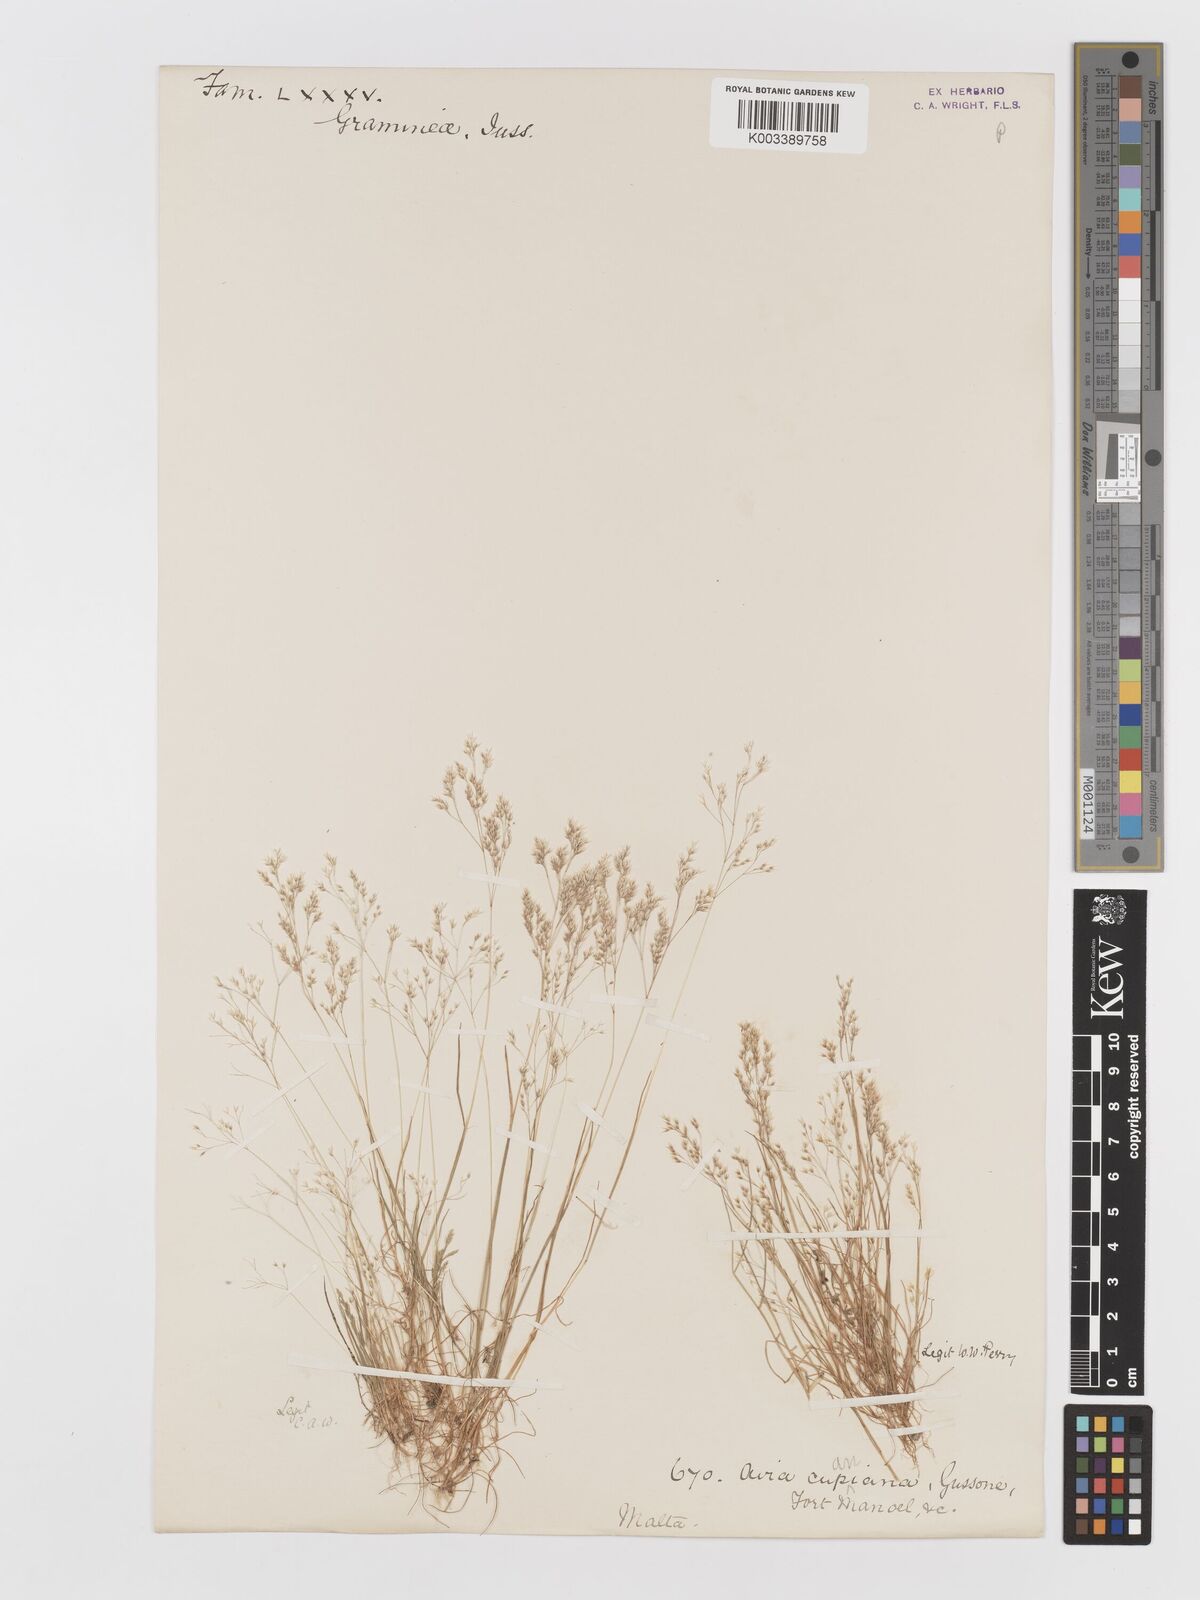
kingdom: Plantae
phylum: Tracheophyta
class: Liliopsida
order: Poales
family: Poaceae
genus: Aira
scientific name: Aira cupaniana
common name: Silver hairgrass
